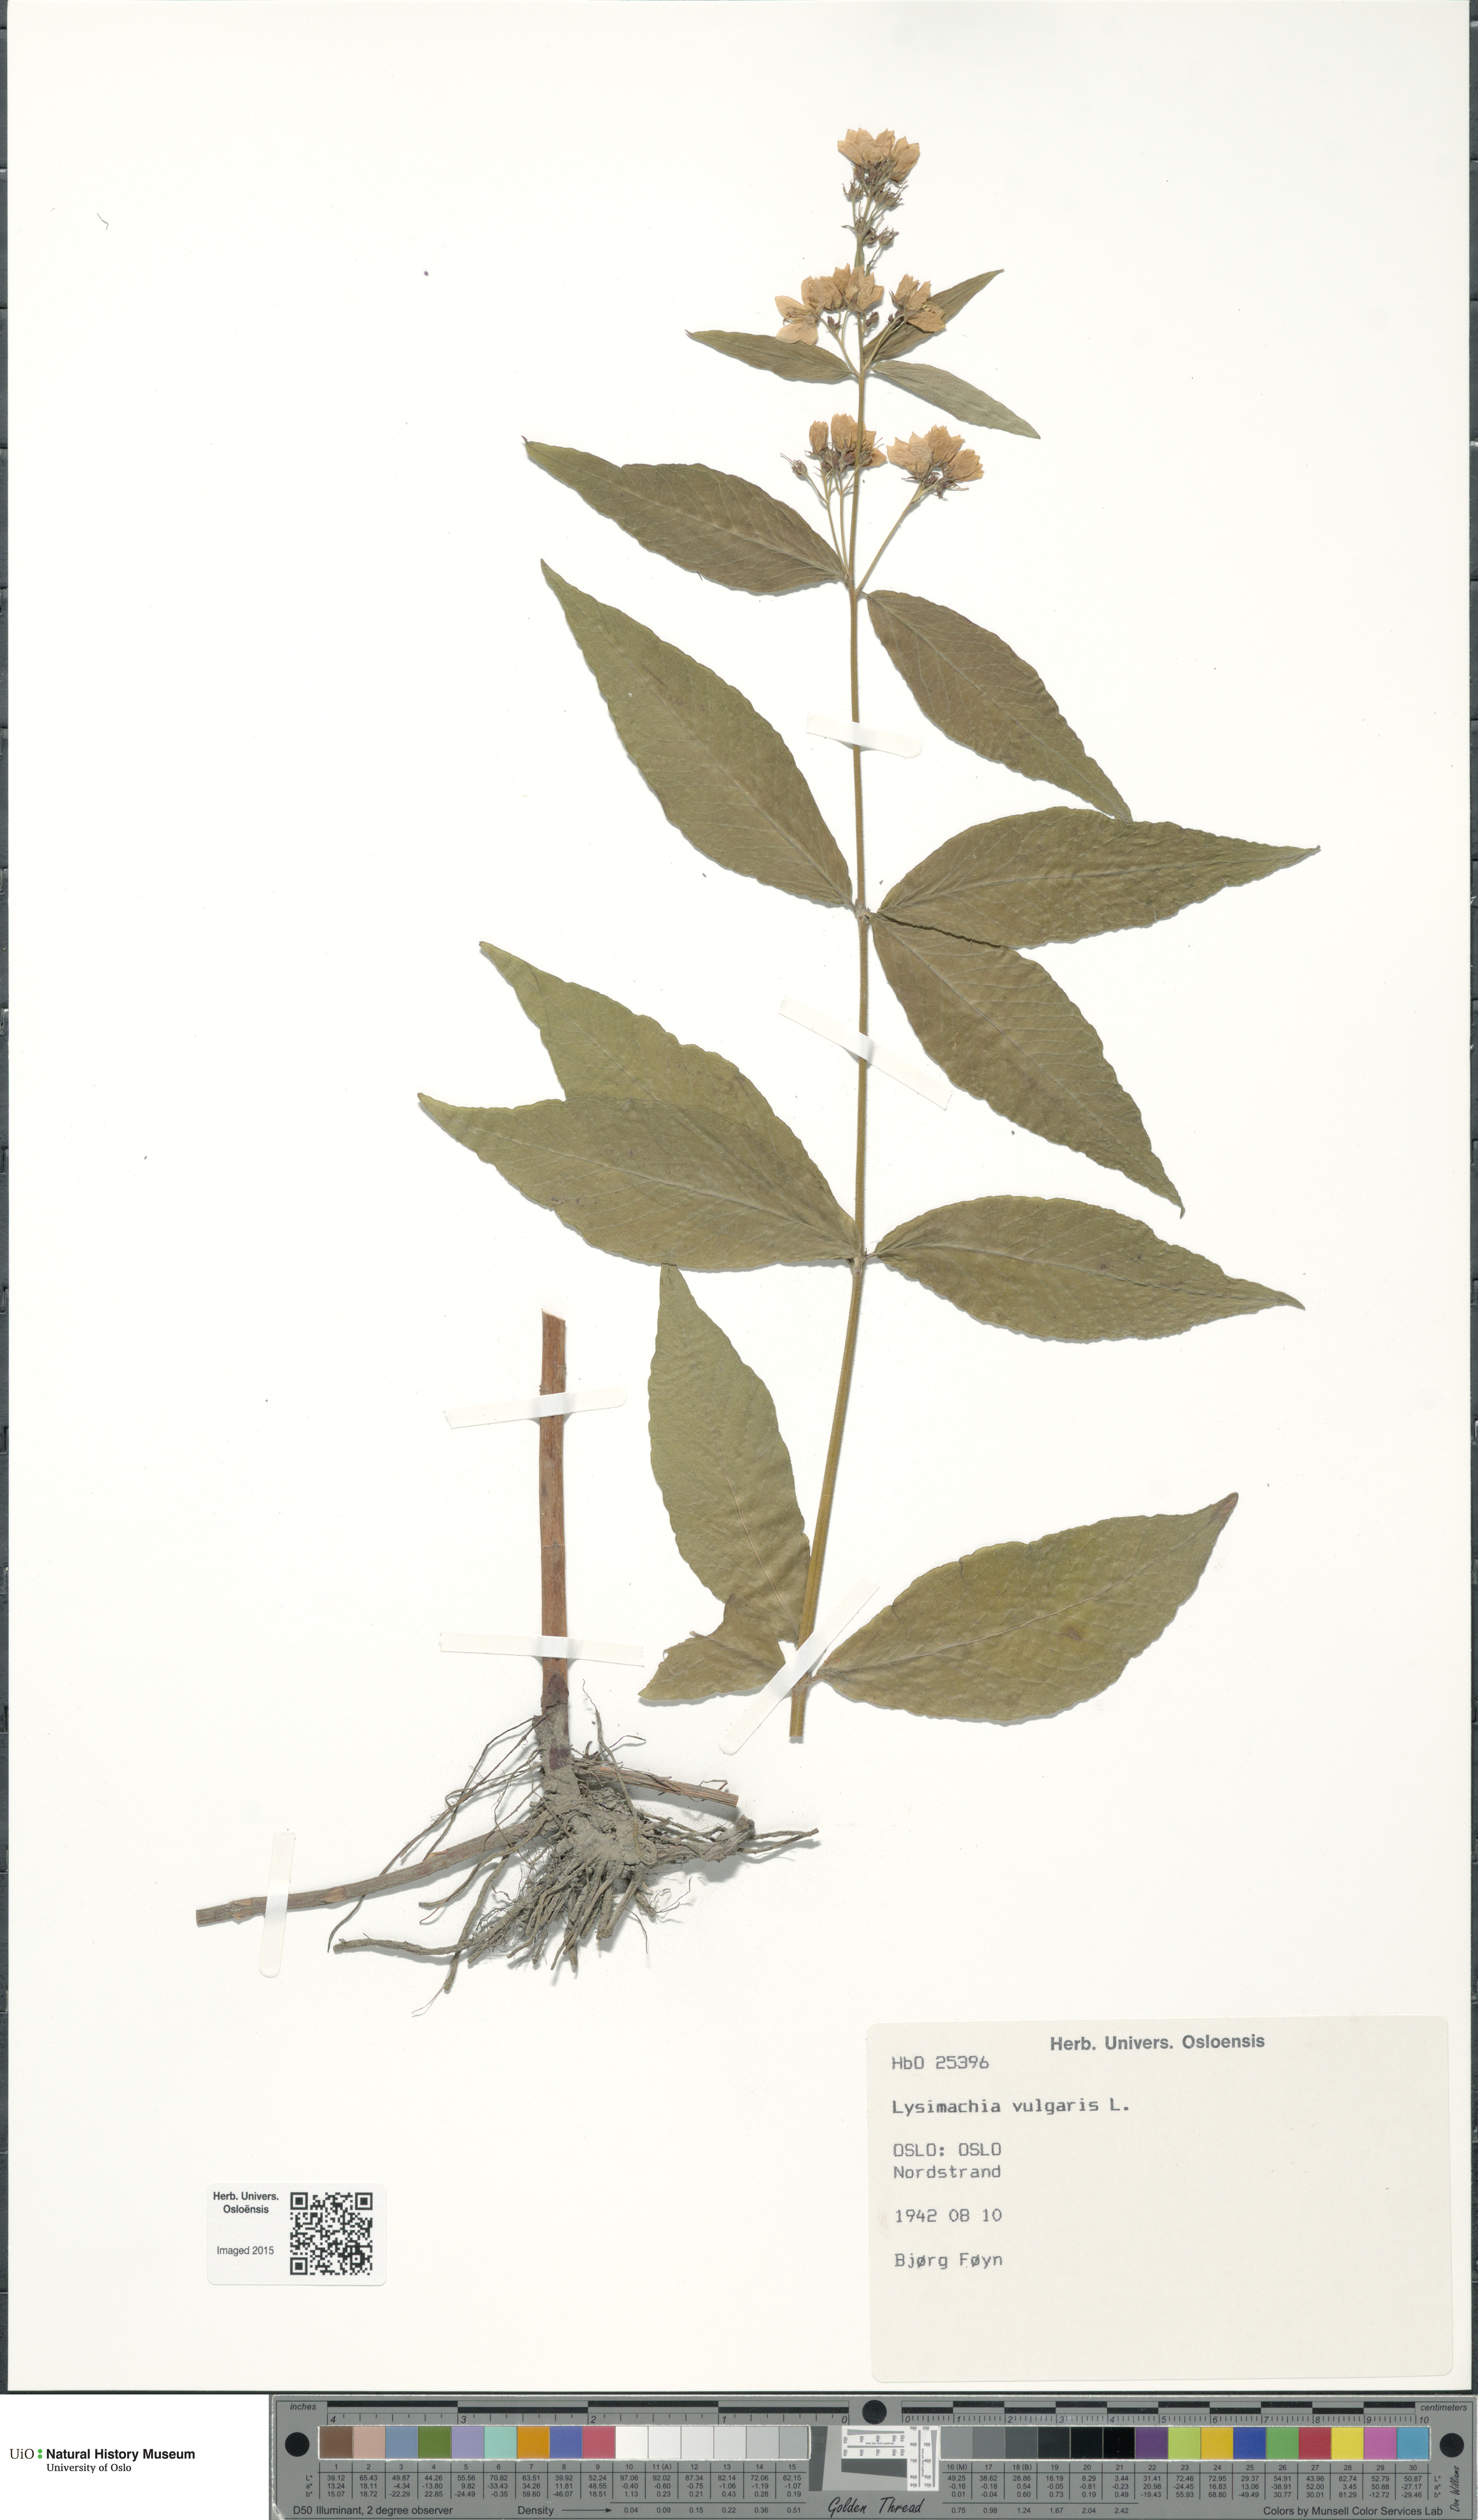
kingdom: Plantae
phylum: Tracheophyta
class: Magnoliopsida
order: Ericales
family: Primulaceae
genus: Lysimachia
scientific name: Lysimachia vulgaris
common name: Yellow loosestrife
